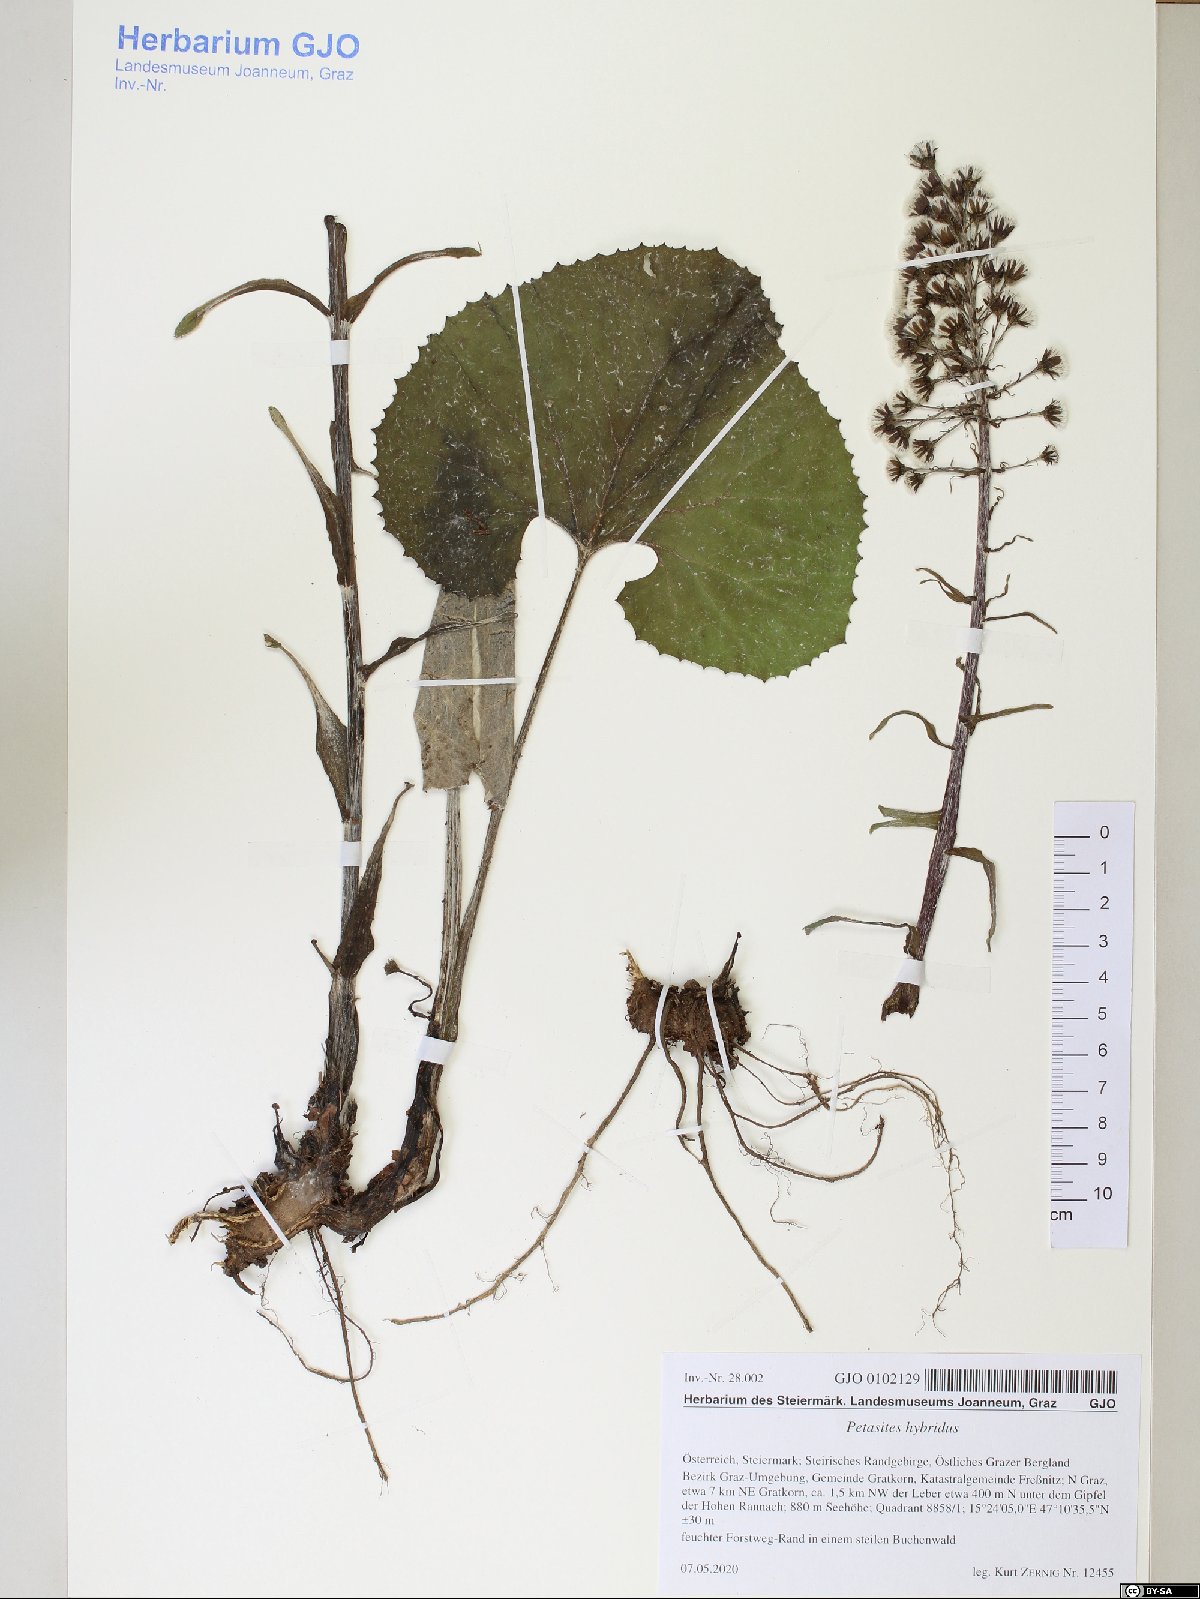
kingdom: Plantae
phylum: Tracheophyta
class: Magnoliopsida
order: Asterales
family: Asteraceae
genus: Petasites
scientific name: Petasites hybridus
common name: Butterbur
